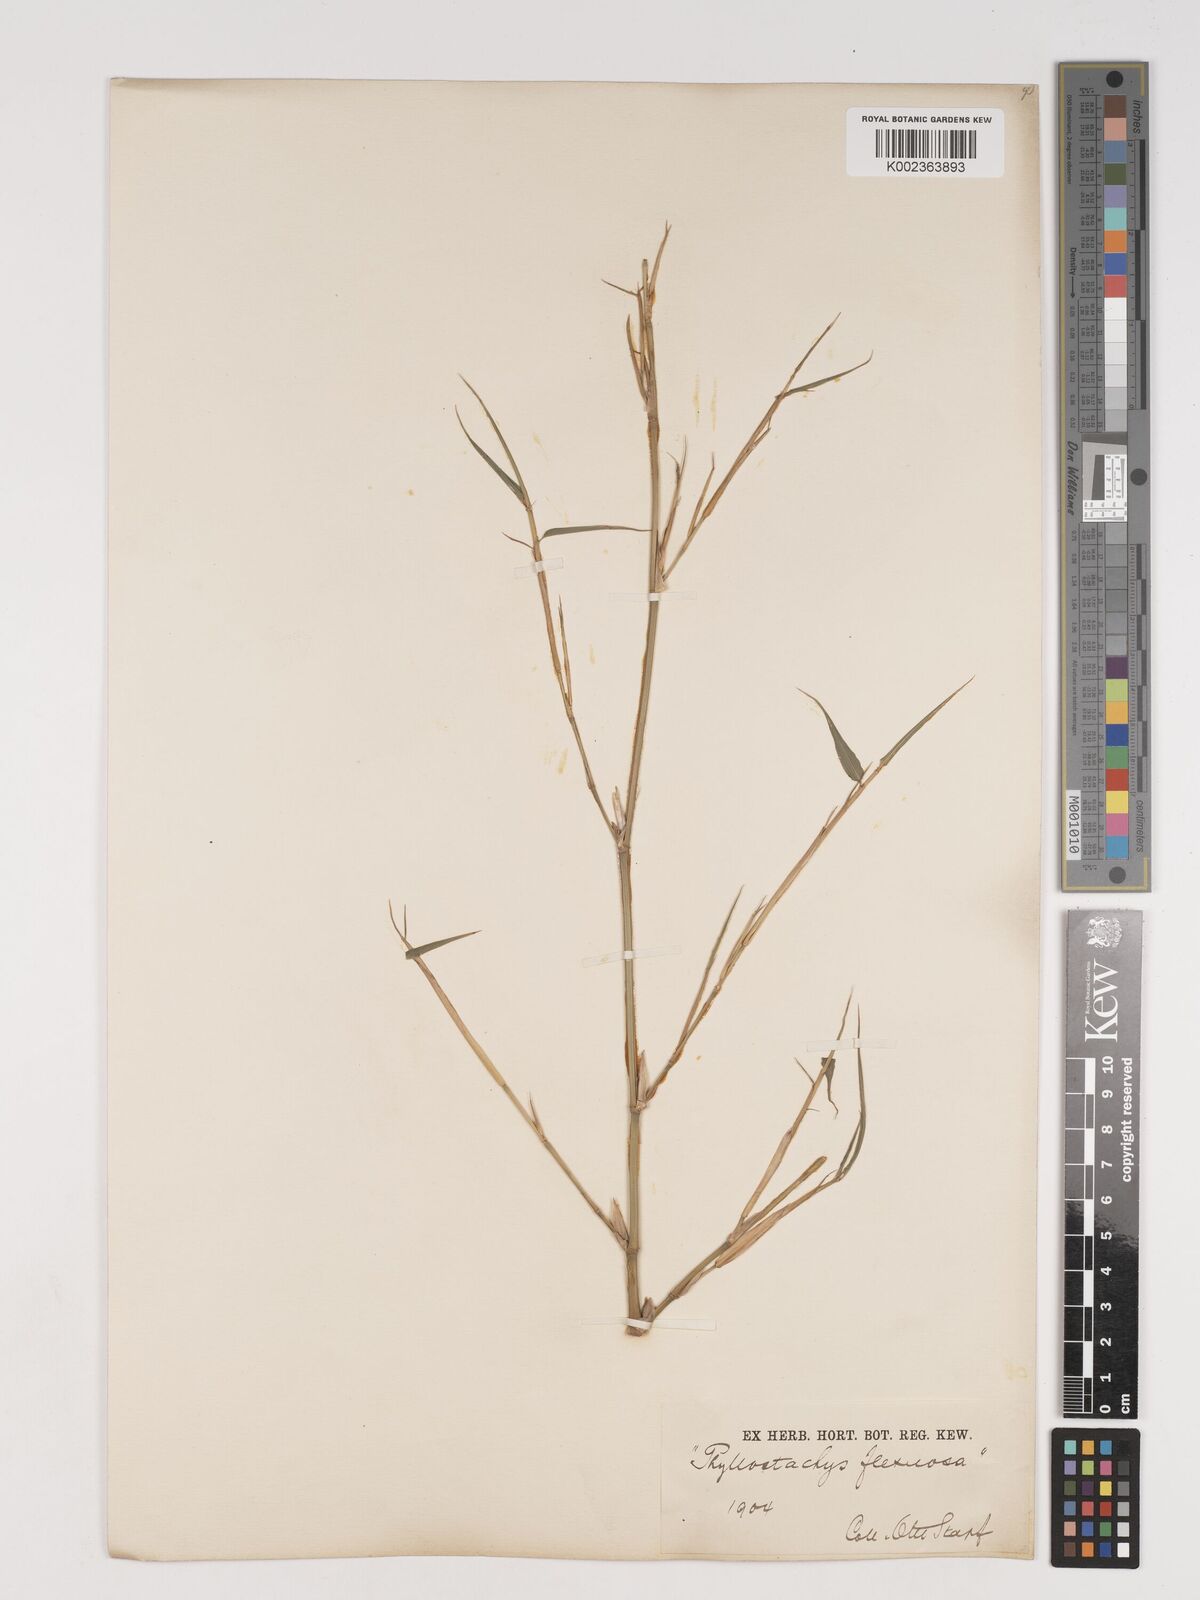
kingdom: Plantae
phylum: Tracheophyta
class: Liliopsida
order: Poales
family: Poaceae
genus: Phyllostachys
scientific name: Phyllostachys flexuosa
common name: Drooping timber bamboo
